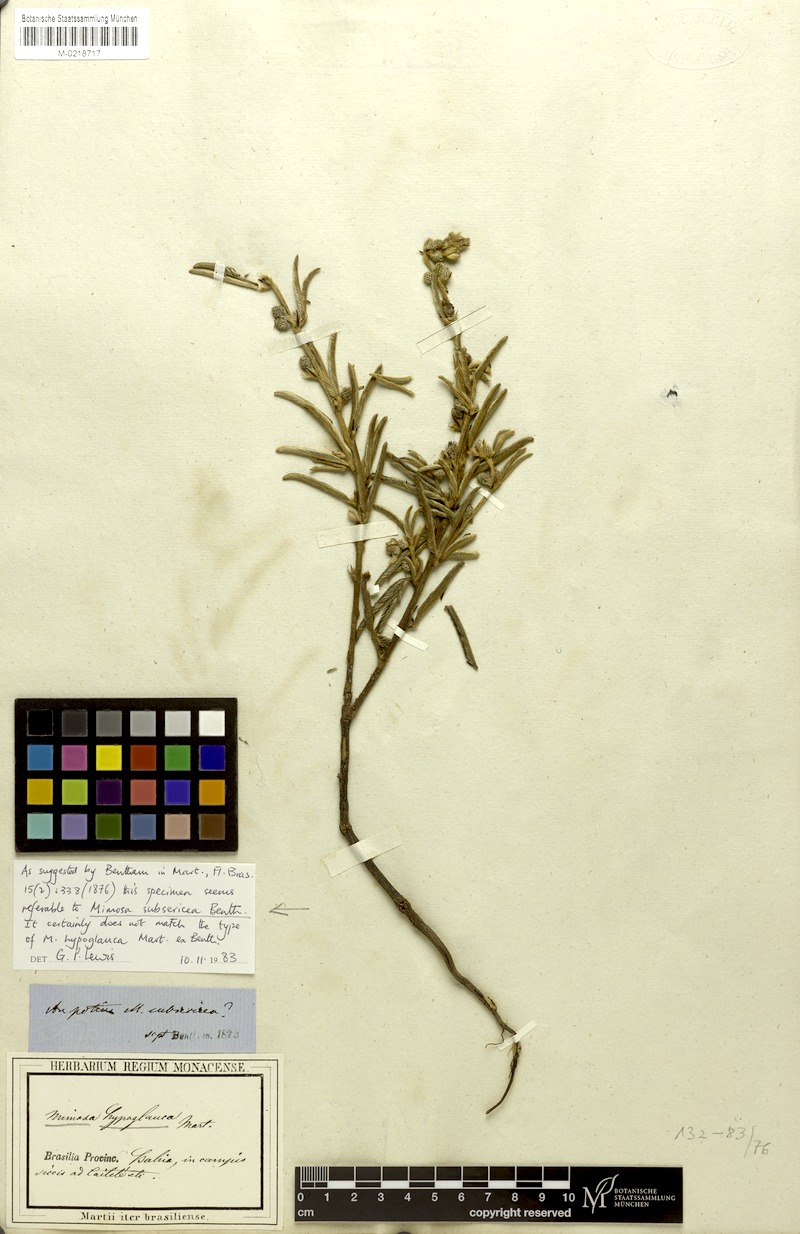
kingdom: Plantae
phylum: Tracheophyta
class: Magnoliopsida
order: Fabales
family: Fabaceae
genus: Mimosa
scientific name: Mimosa hypoglauca
